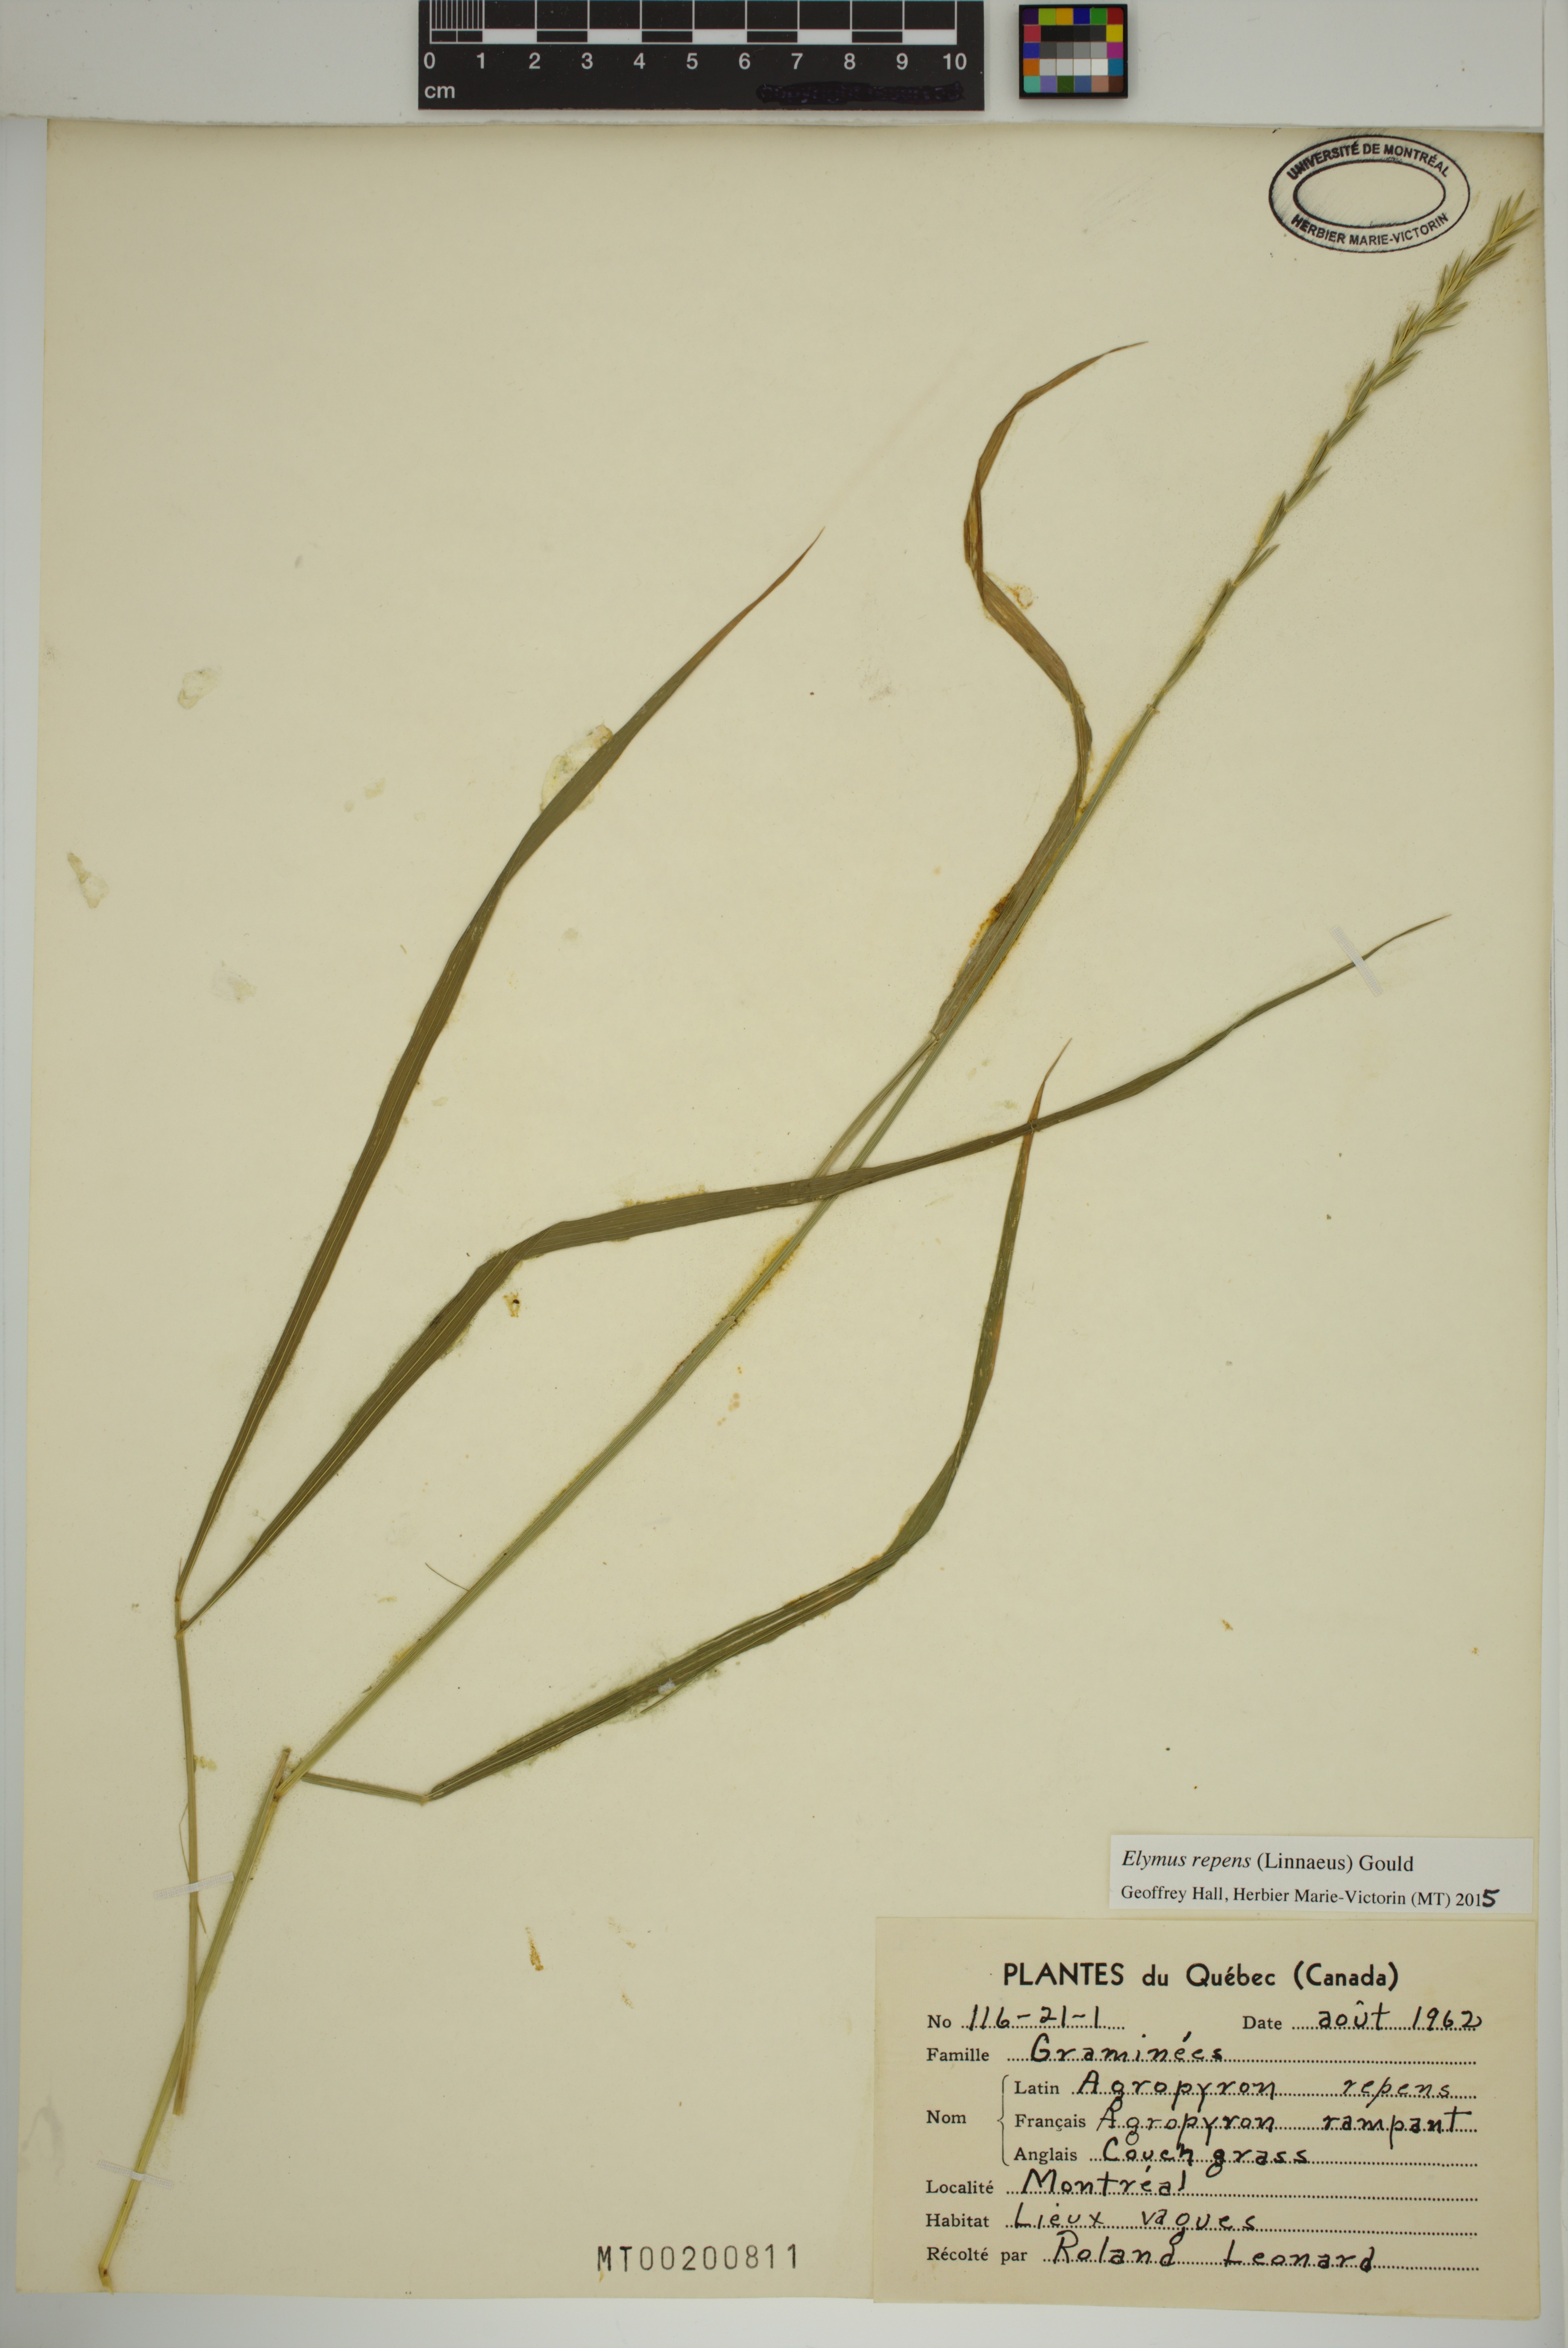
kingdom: Plantae
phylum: Tracheophyta
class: Liliopsida
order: Poales
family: Poaceae
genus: Elymus
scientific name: Elymus repens
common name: Quackgrass
